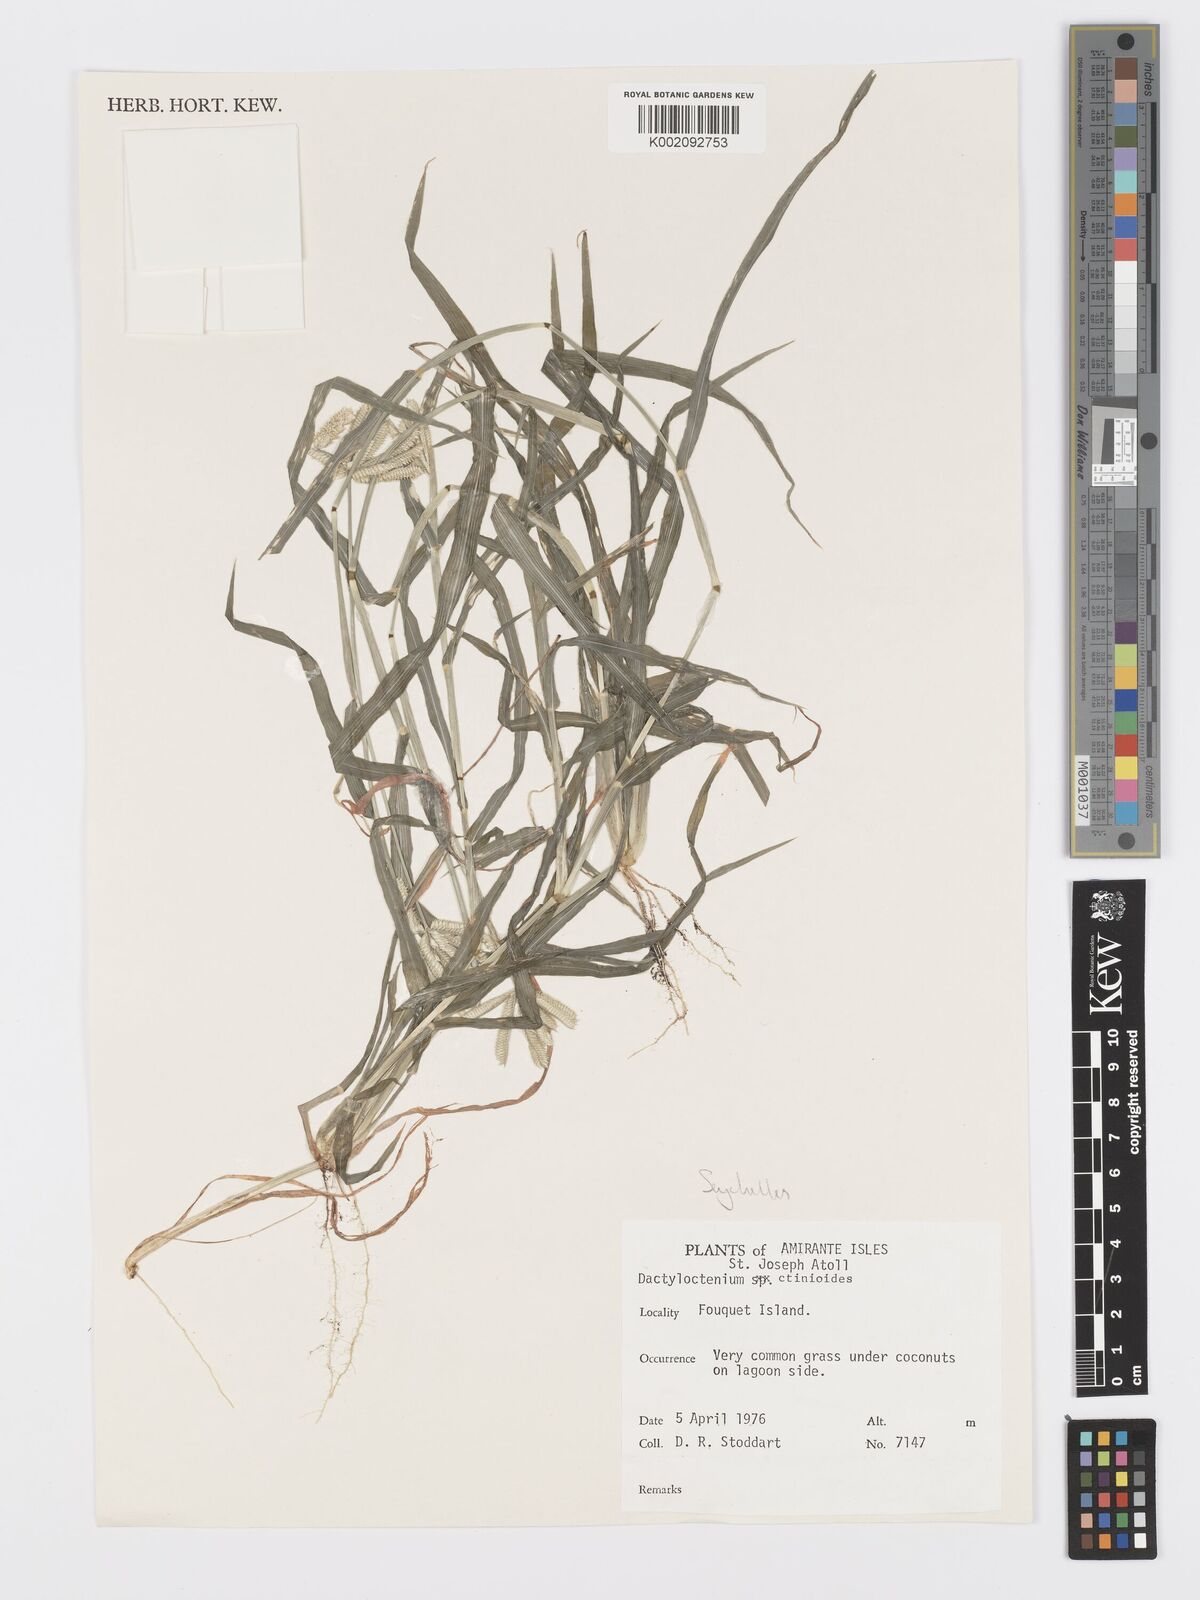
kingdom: Plantae
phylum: Tracheophyta
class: Liliopsida
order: Poales
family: Poaceae
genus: Dactyloctenium
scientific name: Dactyloctenium ctenoides
